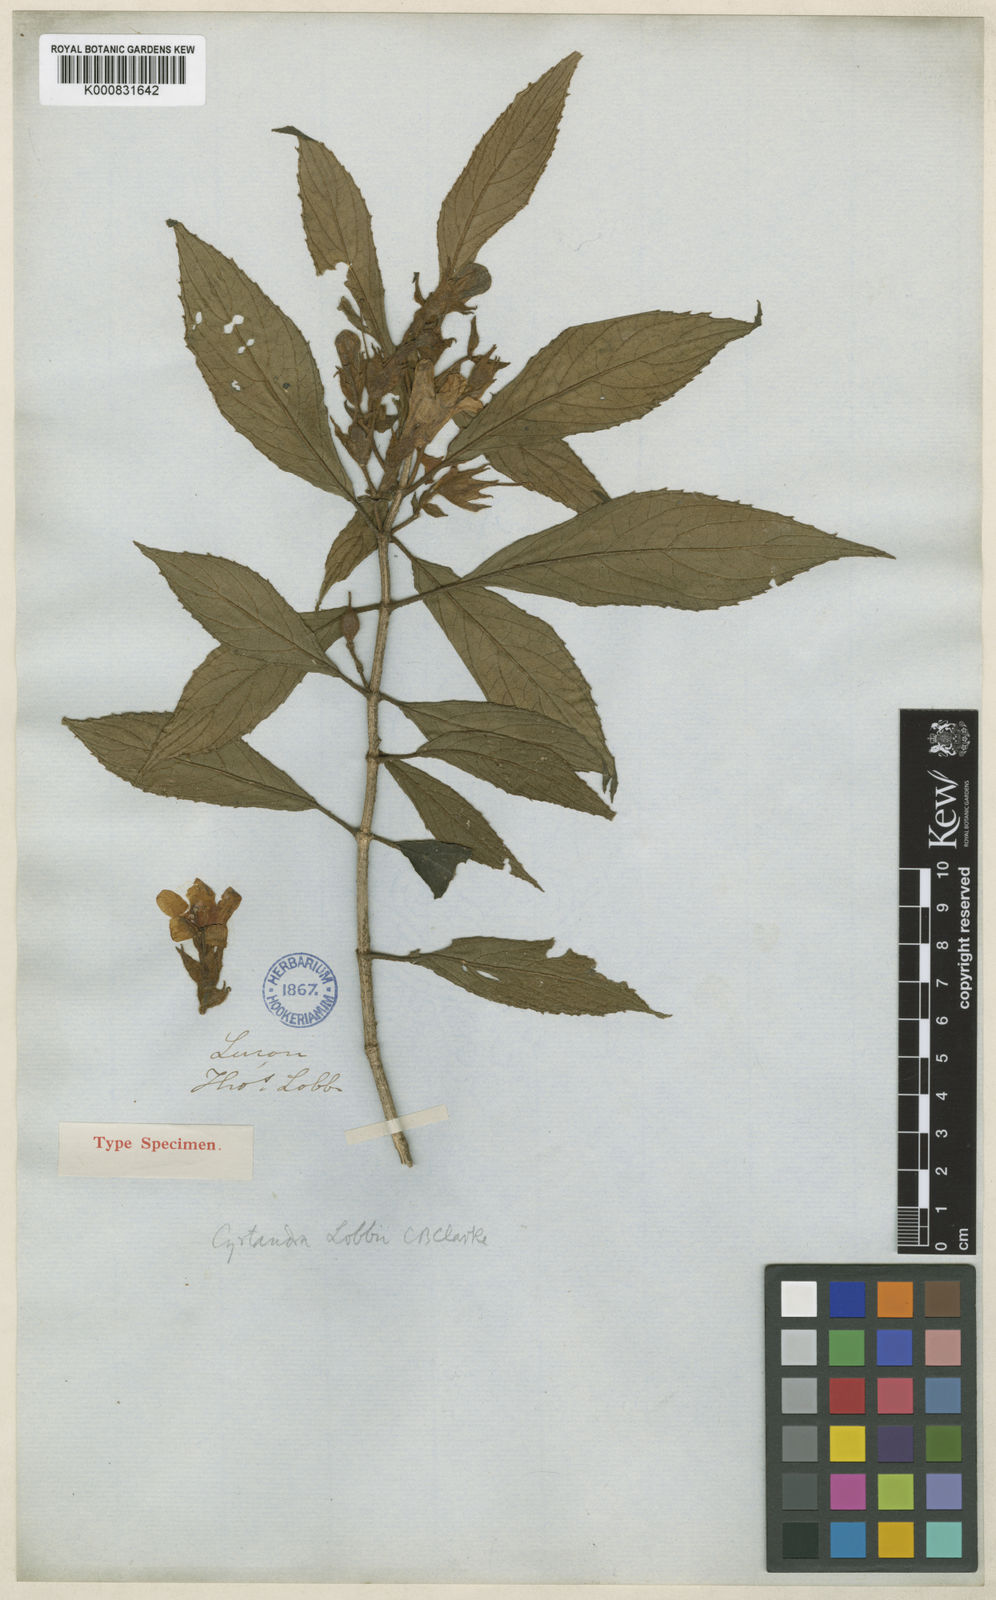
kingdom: Plantae
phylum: Tracheophyta
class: Magnoliopsida
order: Lamiales
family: Gesneriaceae
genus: Cyrtandra
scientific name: Cyrtandra lobbii
